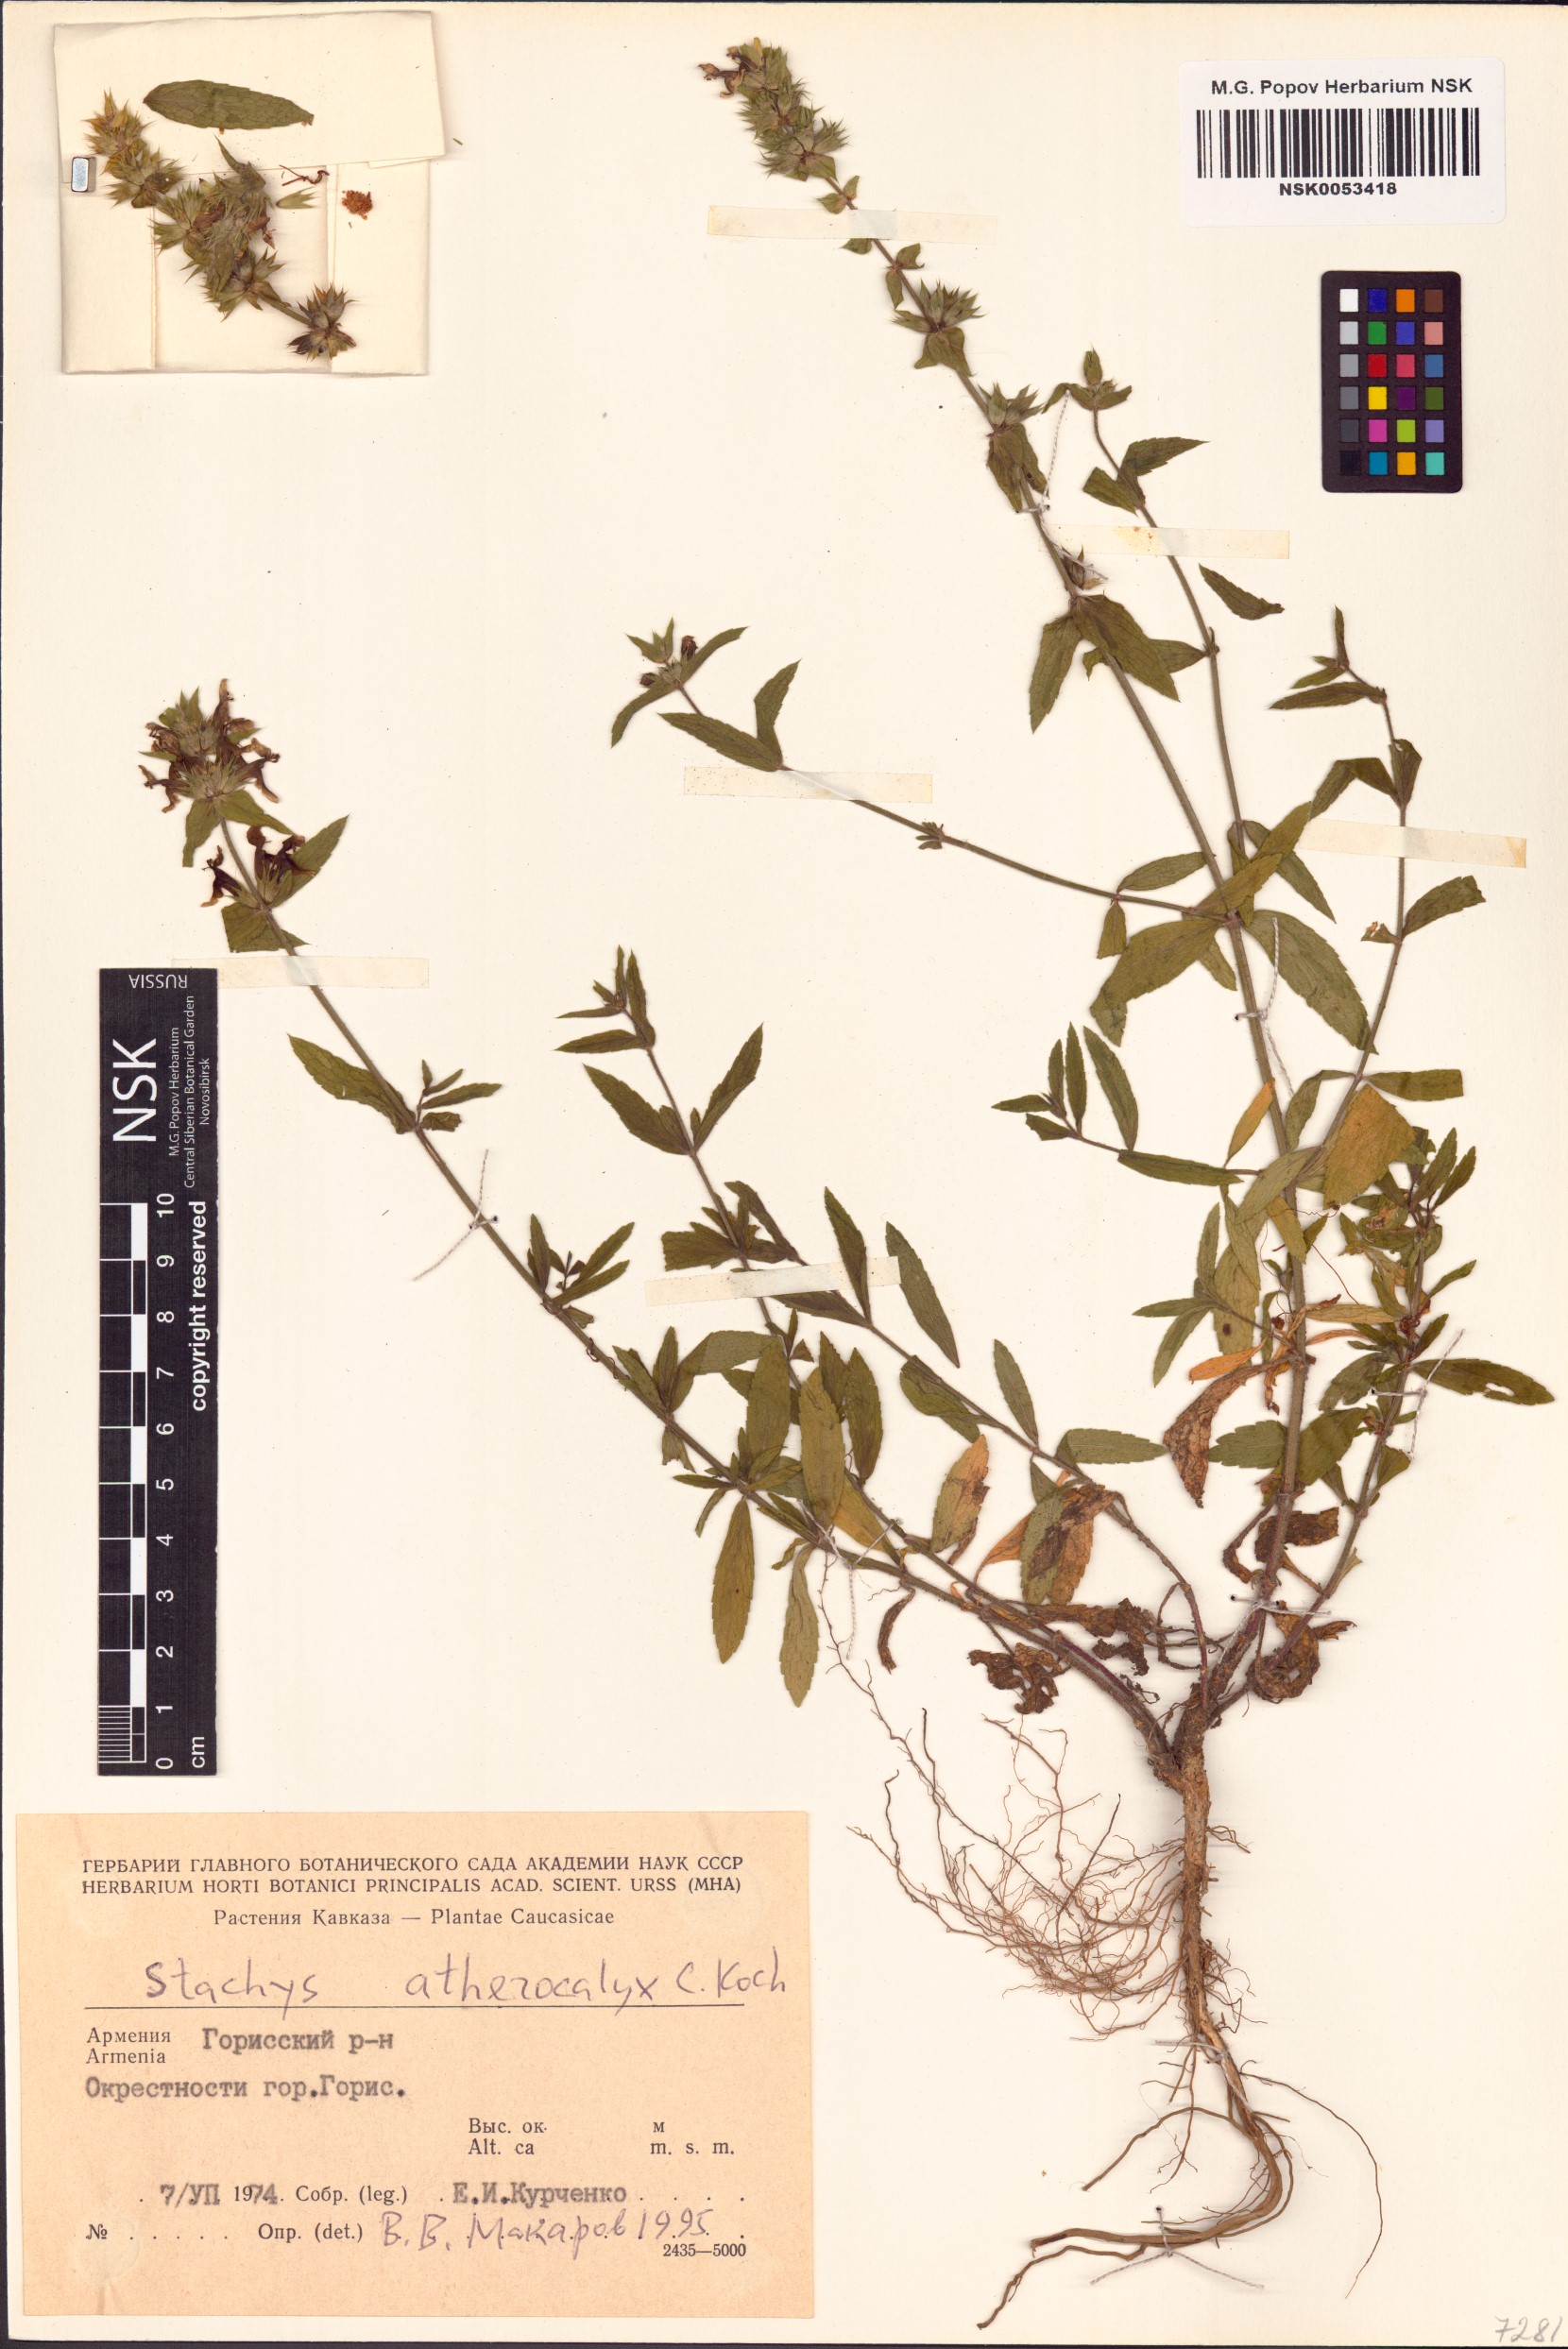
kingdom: Plantae
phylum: Tracheophyta
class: Magnoliopsida
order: Lamiales
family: Lamiaceae
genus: Stachys
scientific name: Stachys atherocalyx
